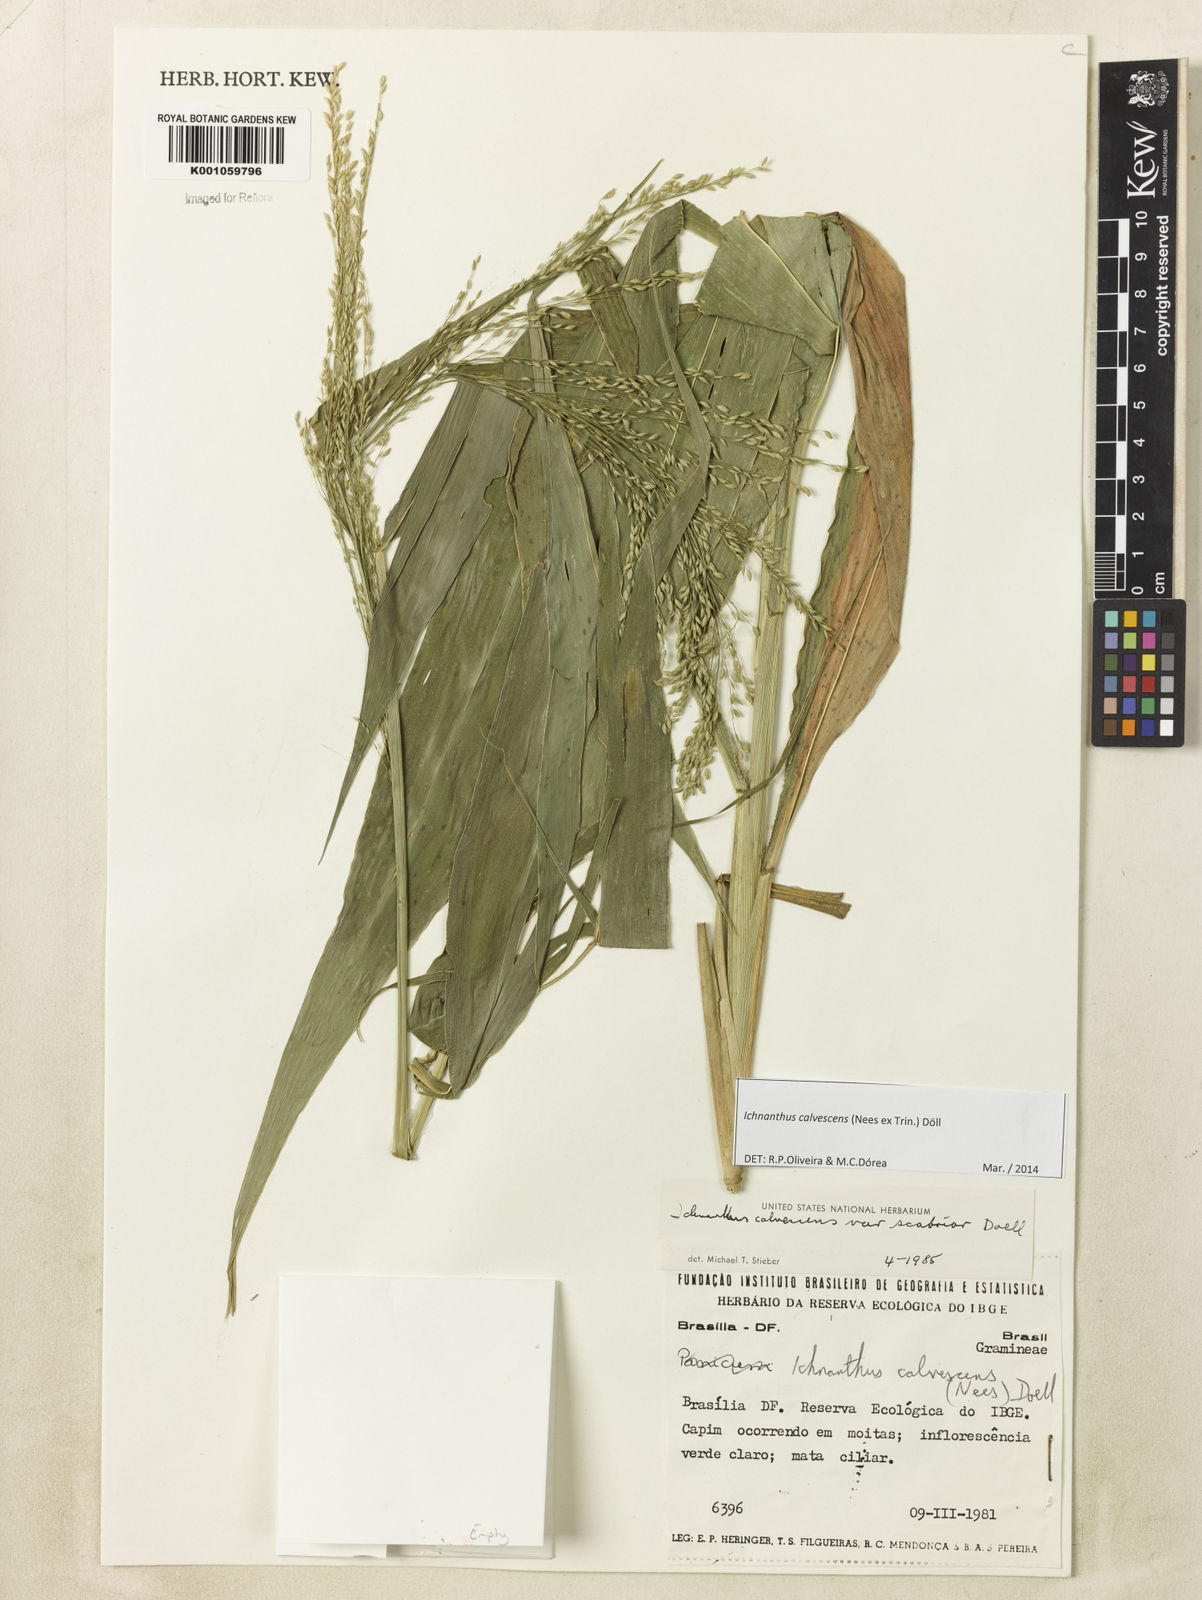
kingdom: Plantae
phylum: Tracheophyta
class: Liliopsida
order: Poales
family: Poaceae
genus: Ichnanthus
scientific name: Ichnanthus
